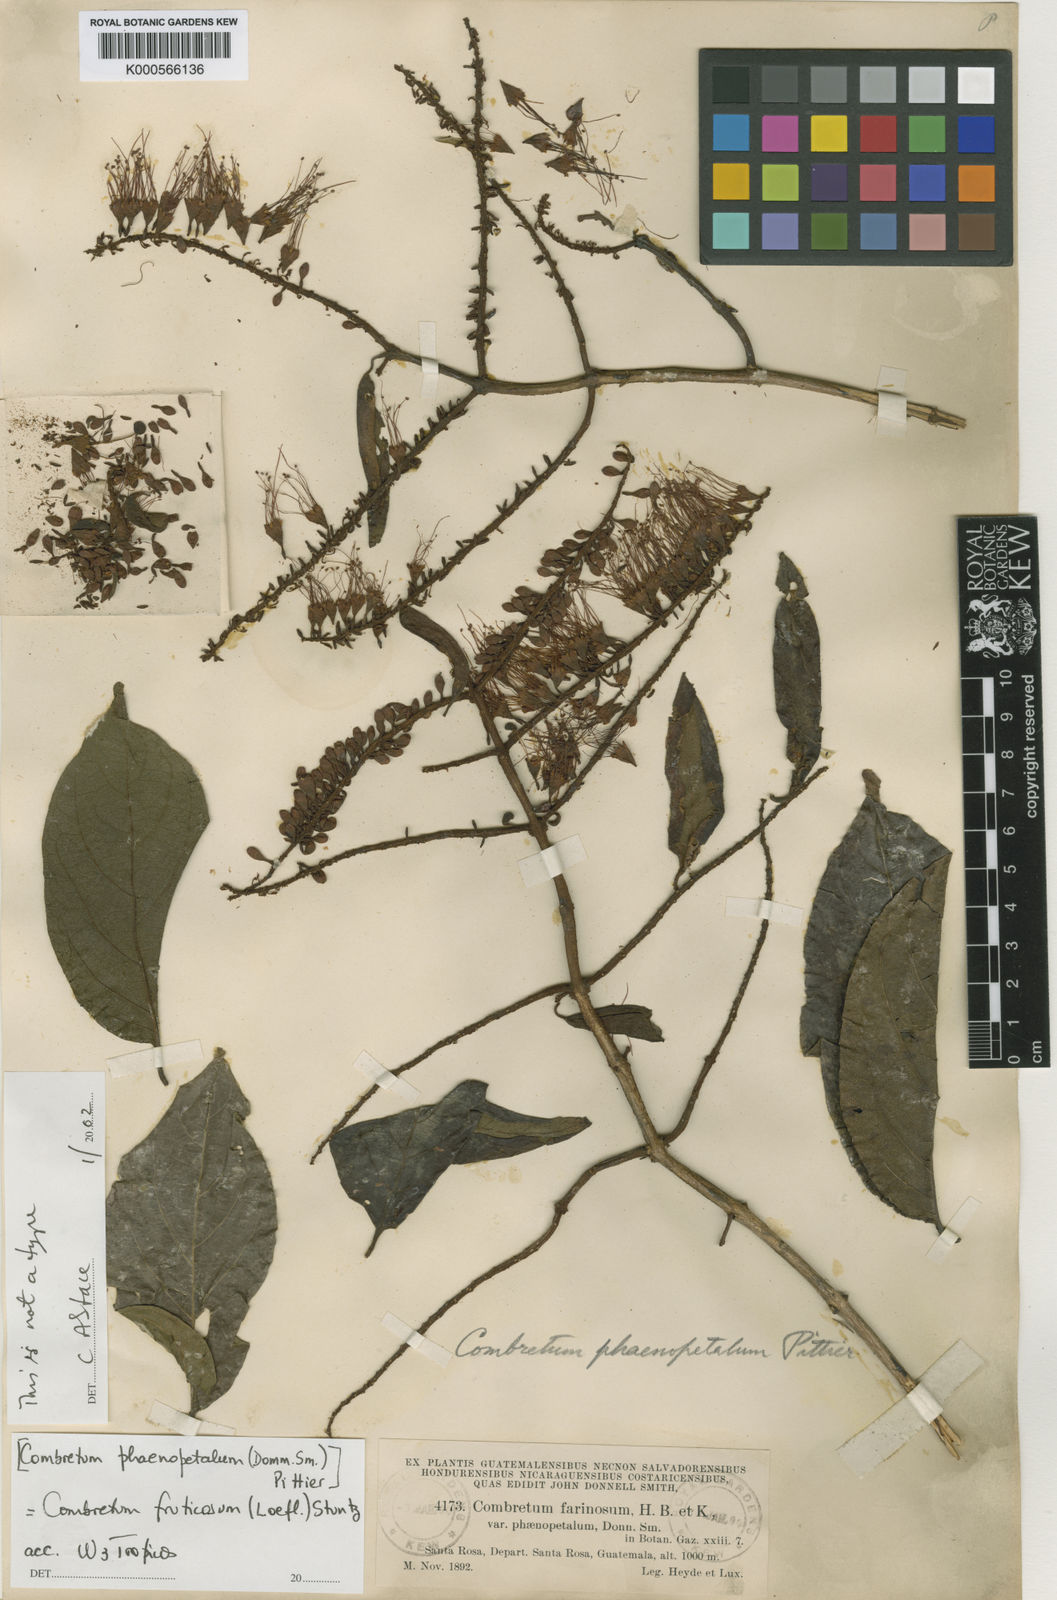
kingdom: Plantae
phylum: Tracheophyta
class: Magnoliopsida
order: Myrtales
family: Combretaceae
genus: Combretum
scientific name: Combretum fruticosum
